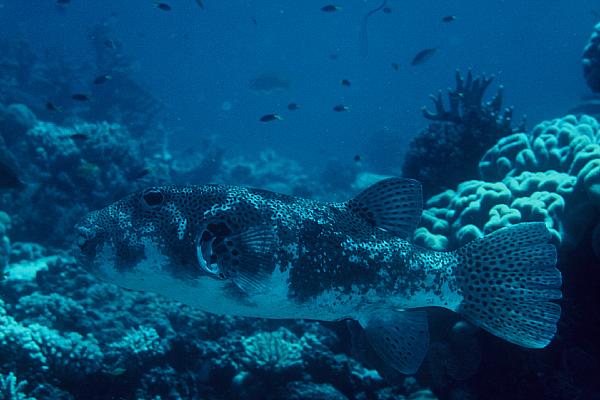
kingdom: Animalia
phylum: Chordata
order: Tetraodontiformes
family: Tetraodontidae
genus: Arothron
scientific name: Arothron stellatus
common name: Star blaasop
